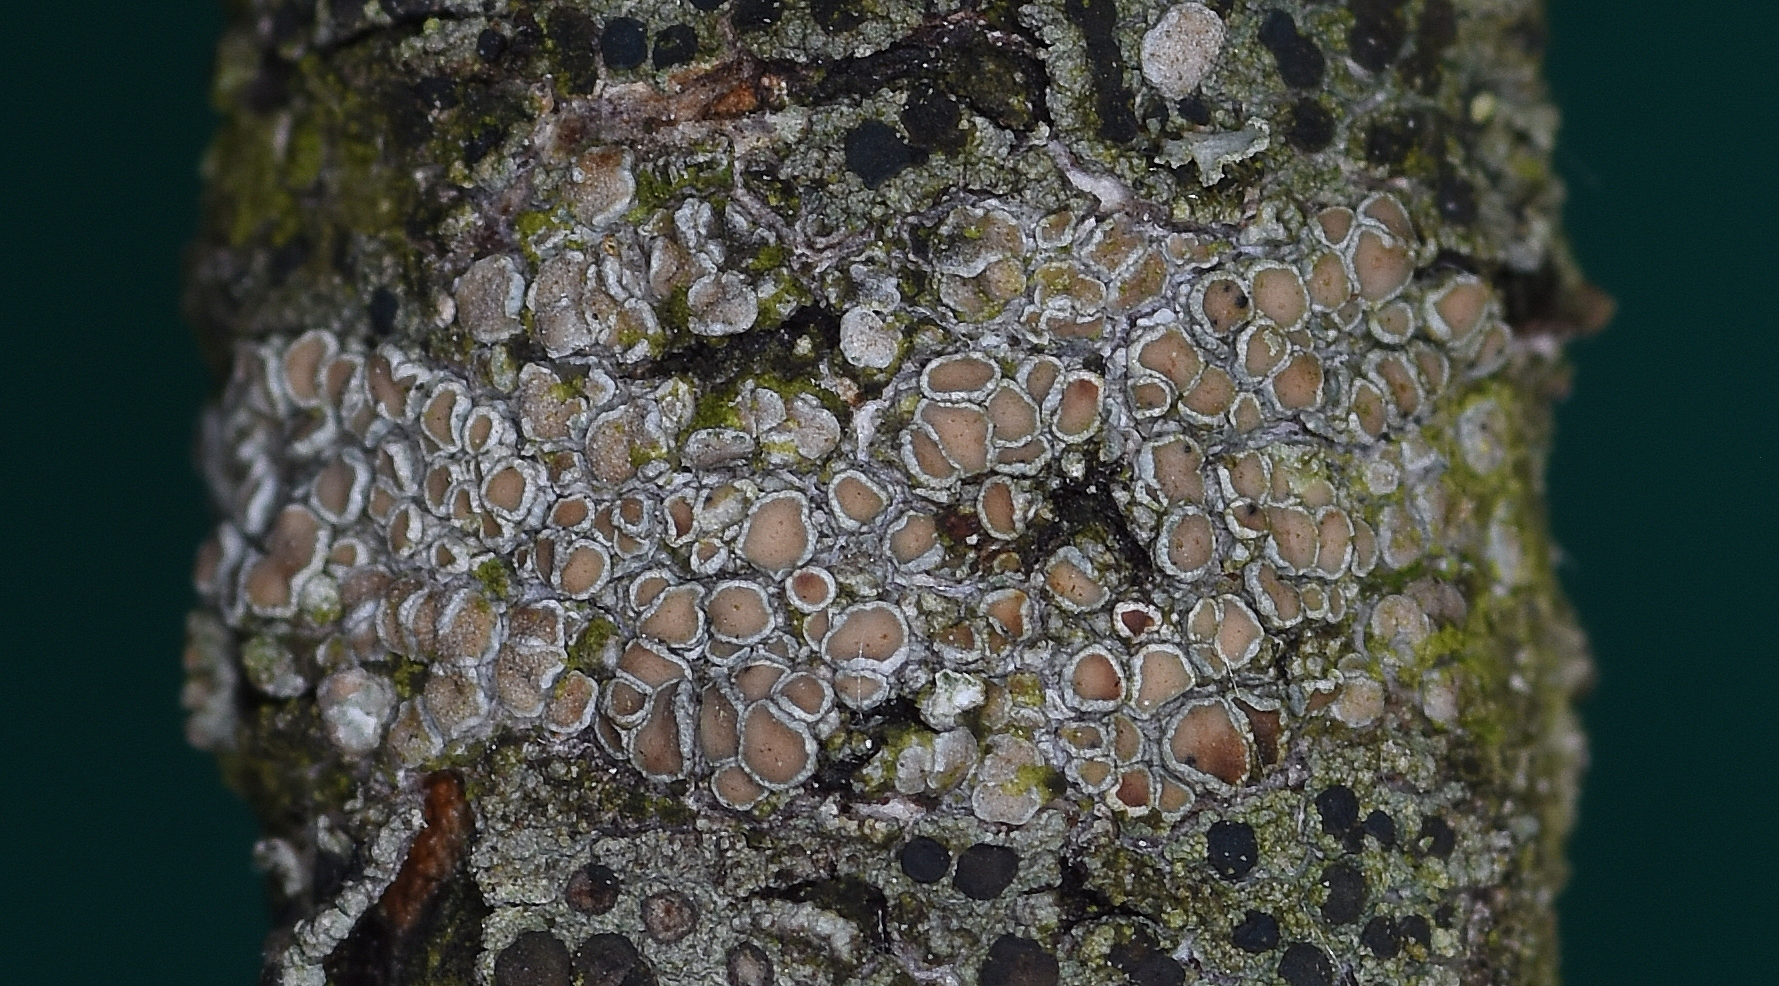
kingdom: Fungi
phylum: Ascomycota
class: Lecanoromycetes
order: Lecanorales
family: Lecanoraceae
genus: Lecanora
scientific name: Lecanora chlarotera
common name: brun kantskivelav
